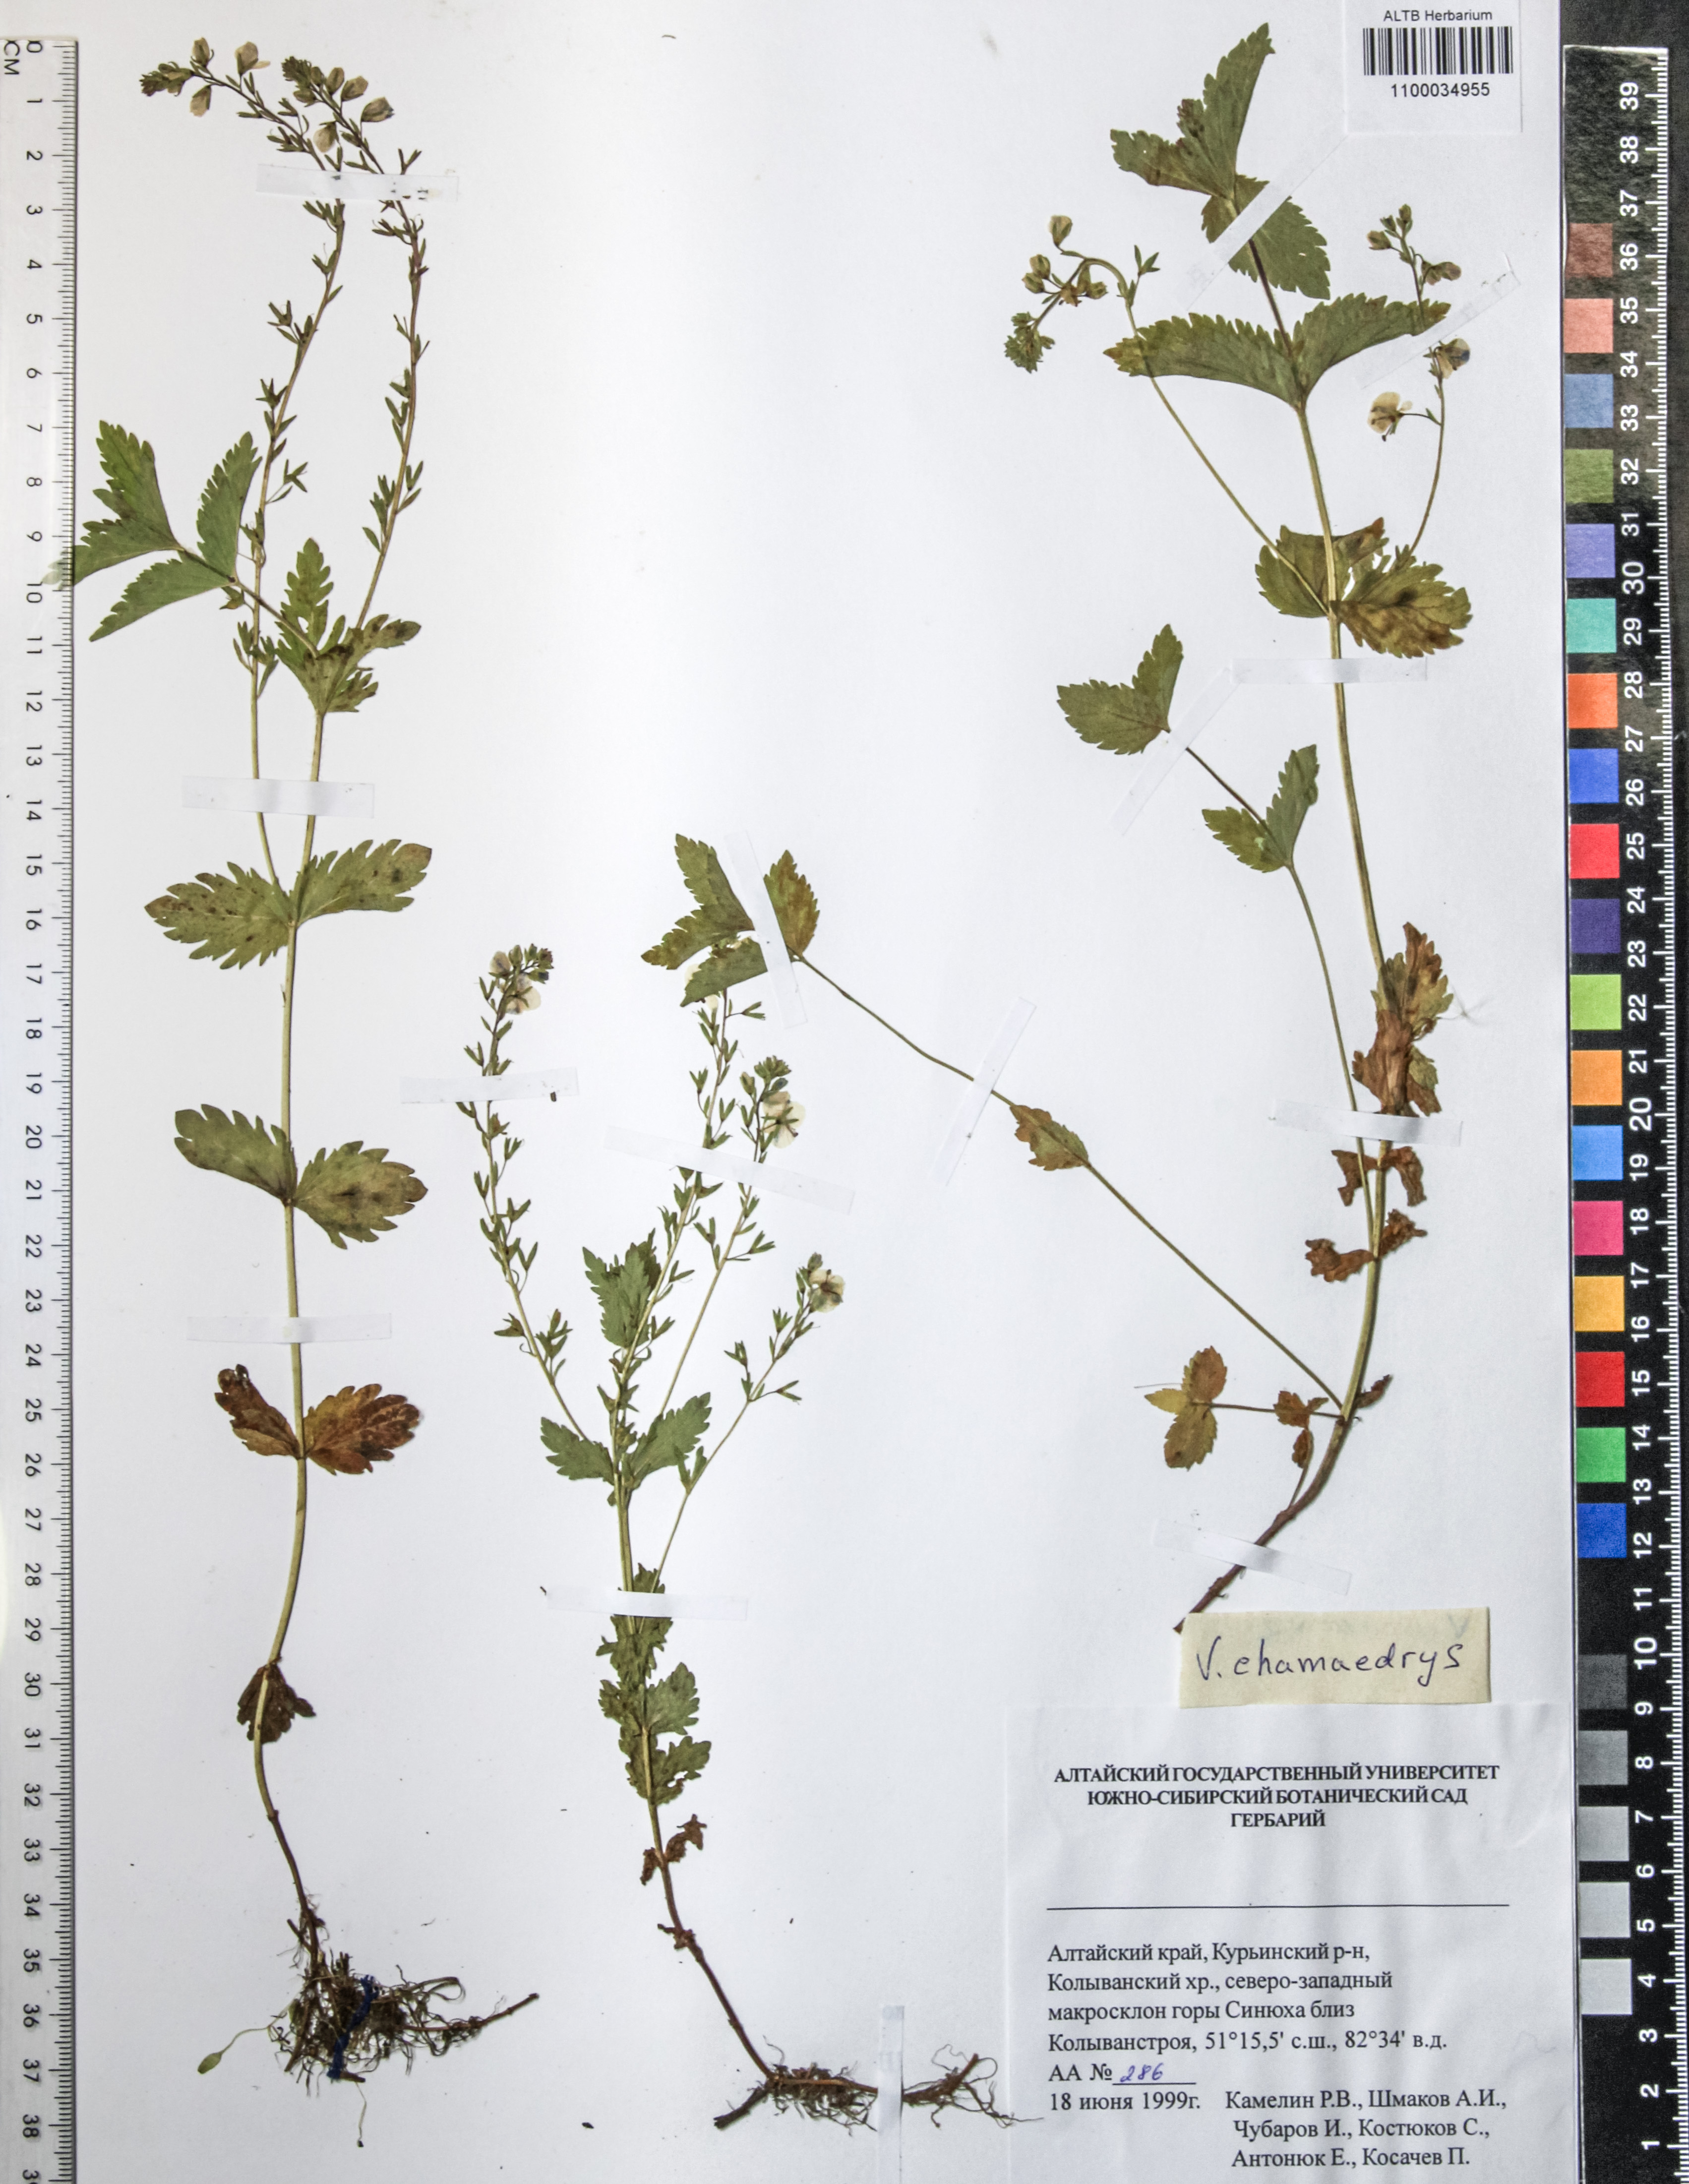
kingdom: Plantae
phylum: Tracheophyta
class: Magnoliopsida
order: Lamiales
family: Plantaginaceae
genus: Veronica
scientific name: Veronica chamaedrys
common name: Germander speedwell
